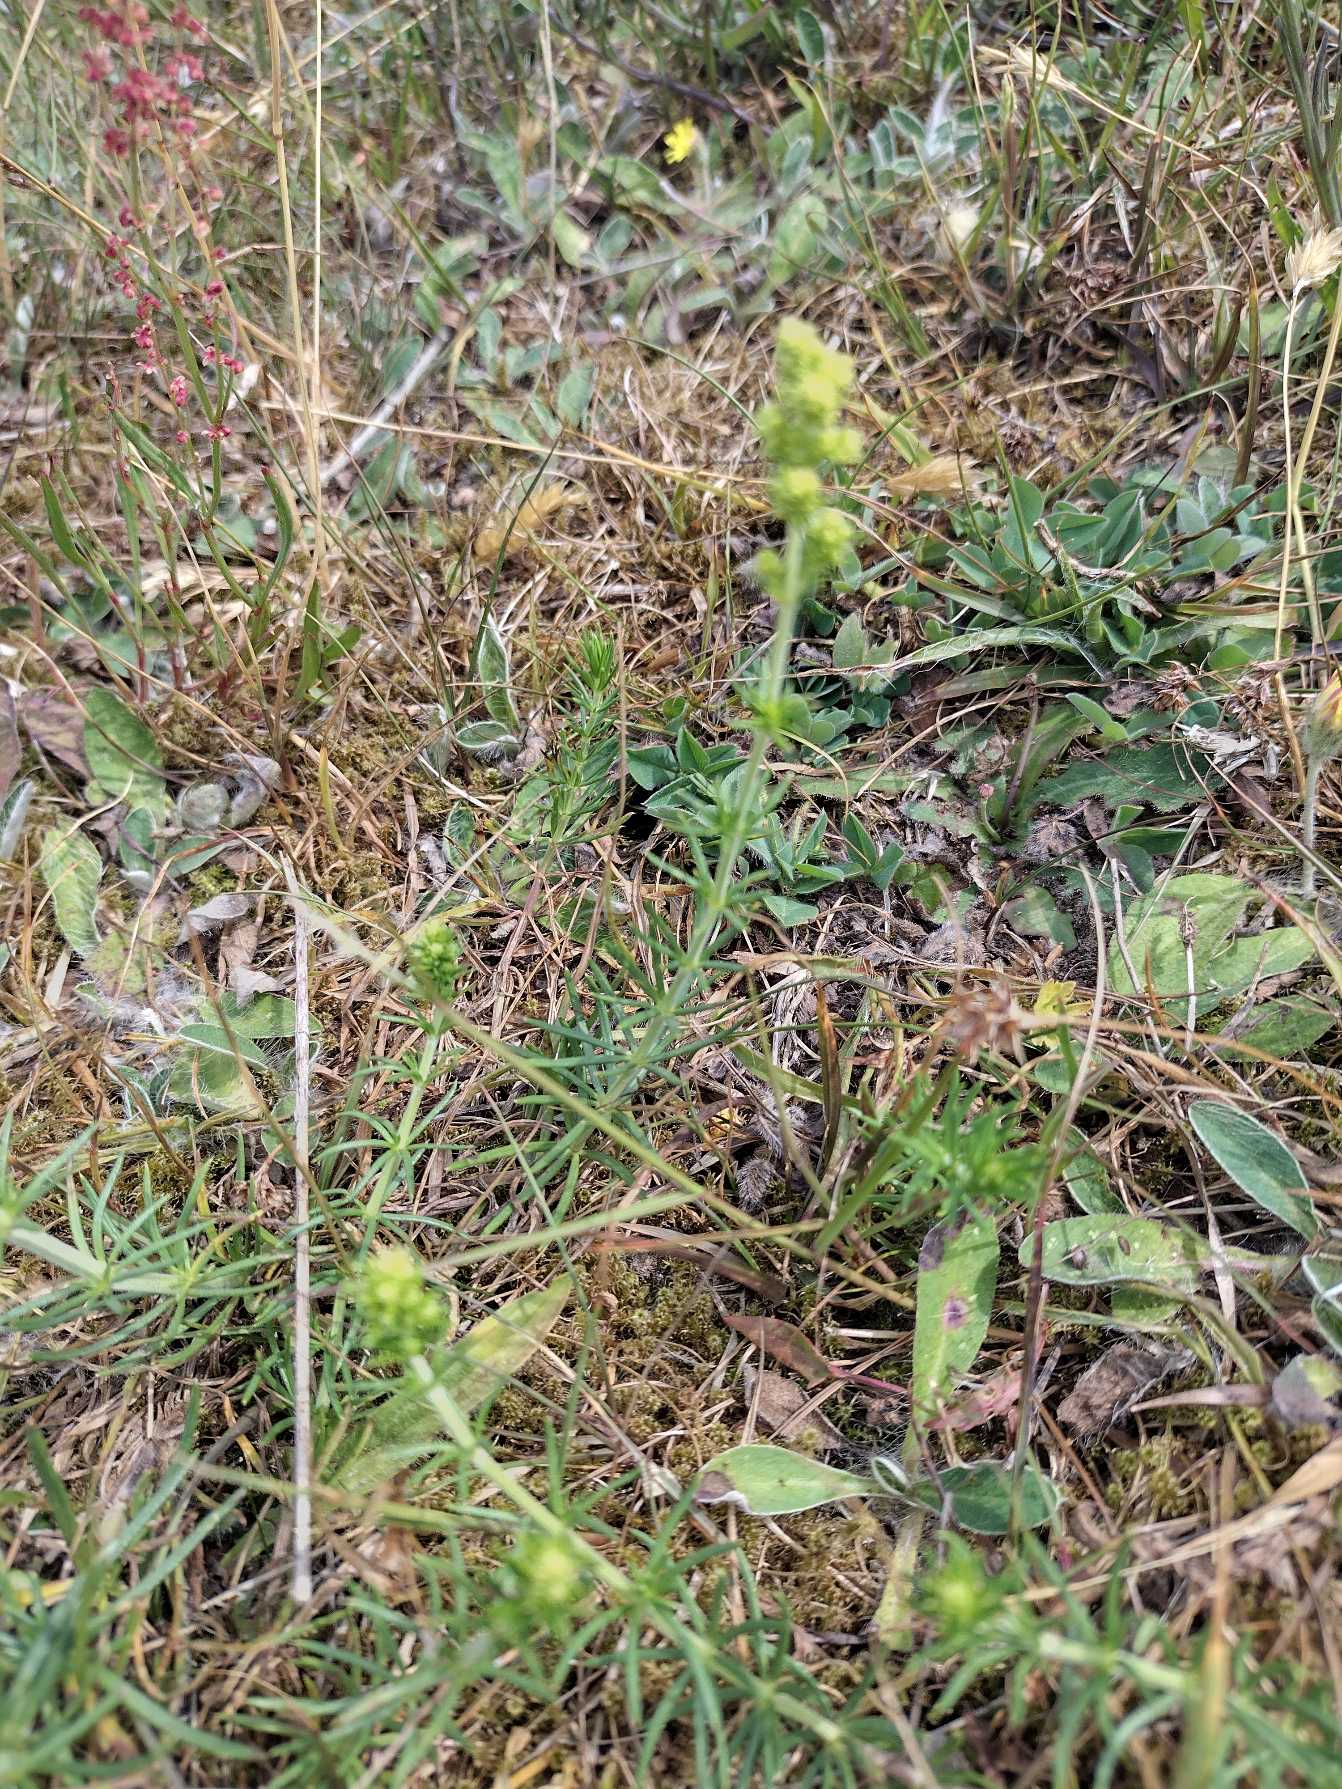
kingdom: Plantae
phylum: Tracheophyta
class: Magnoliopsida
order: Gentianales
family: Rubiaceae
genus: Galium
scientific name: Galium verum
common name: Gul snerre
